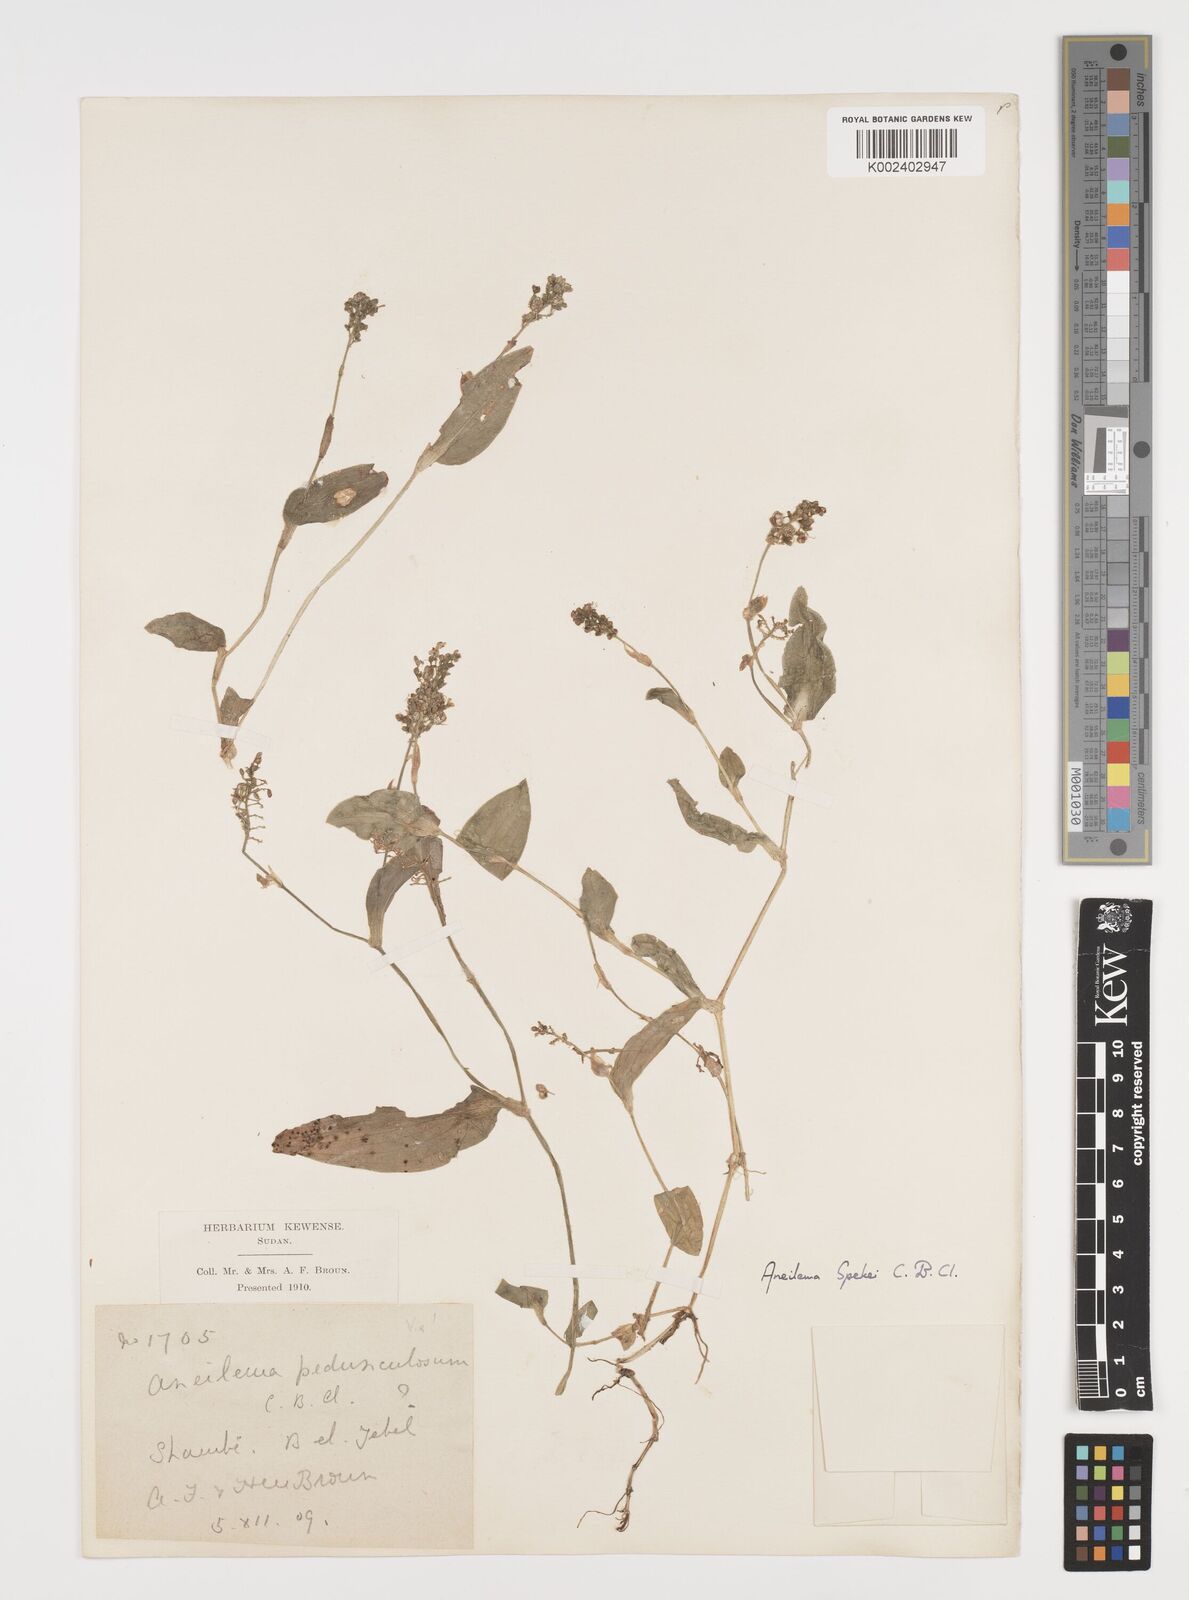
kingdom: Plantae
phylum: Tracheophyta
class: Liliopsida
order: Commelinales
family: Commelinaceae
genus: Aneilema
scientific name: Aneilema spekei
